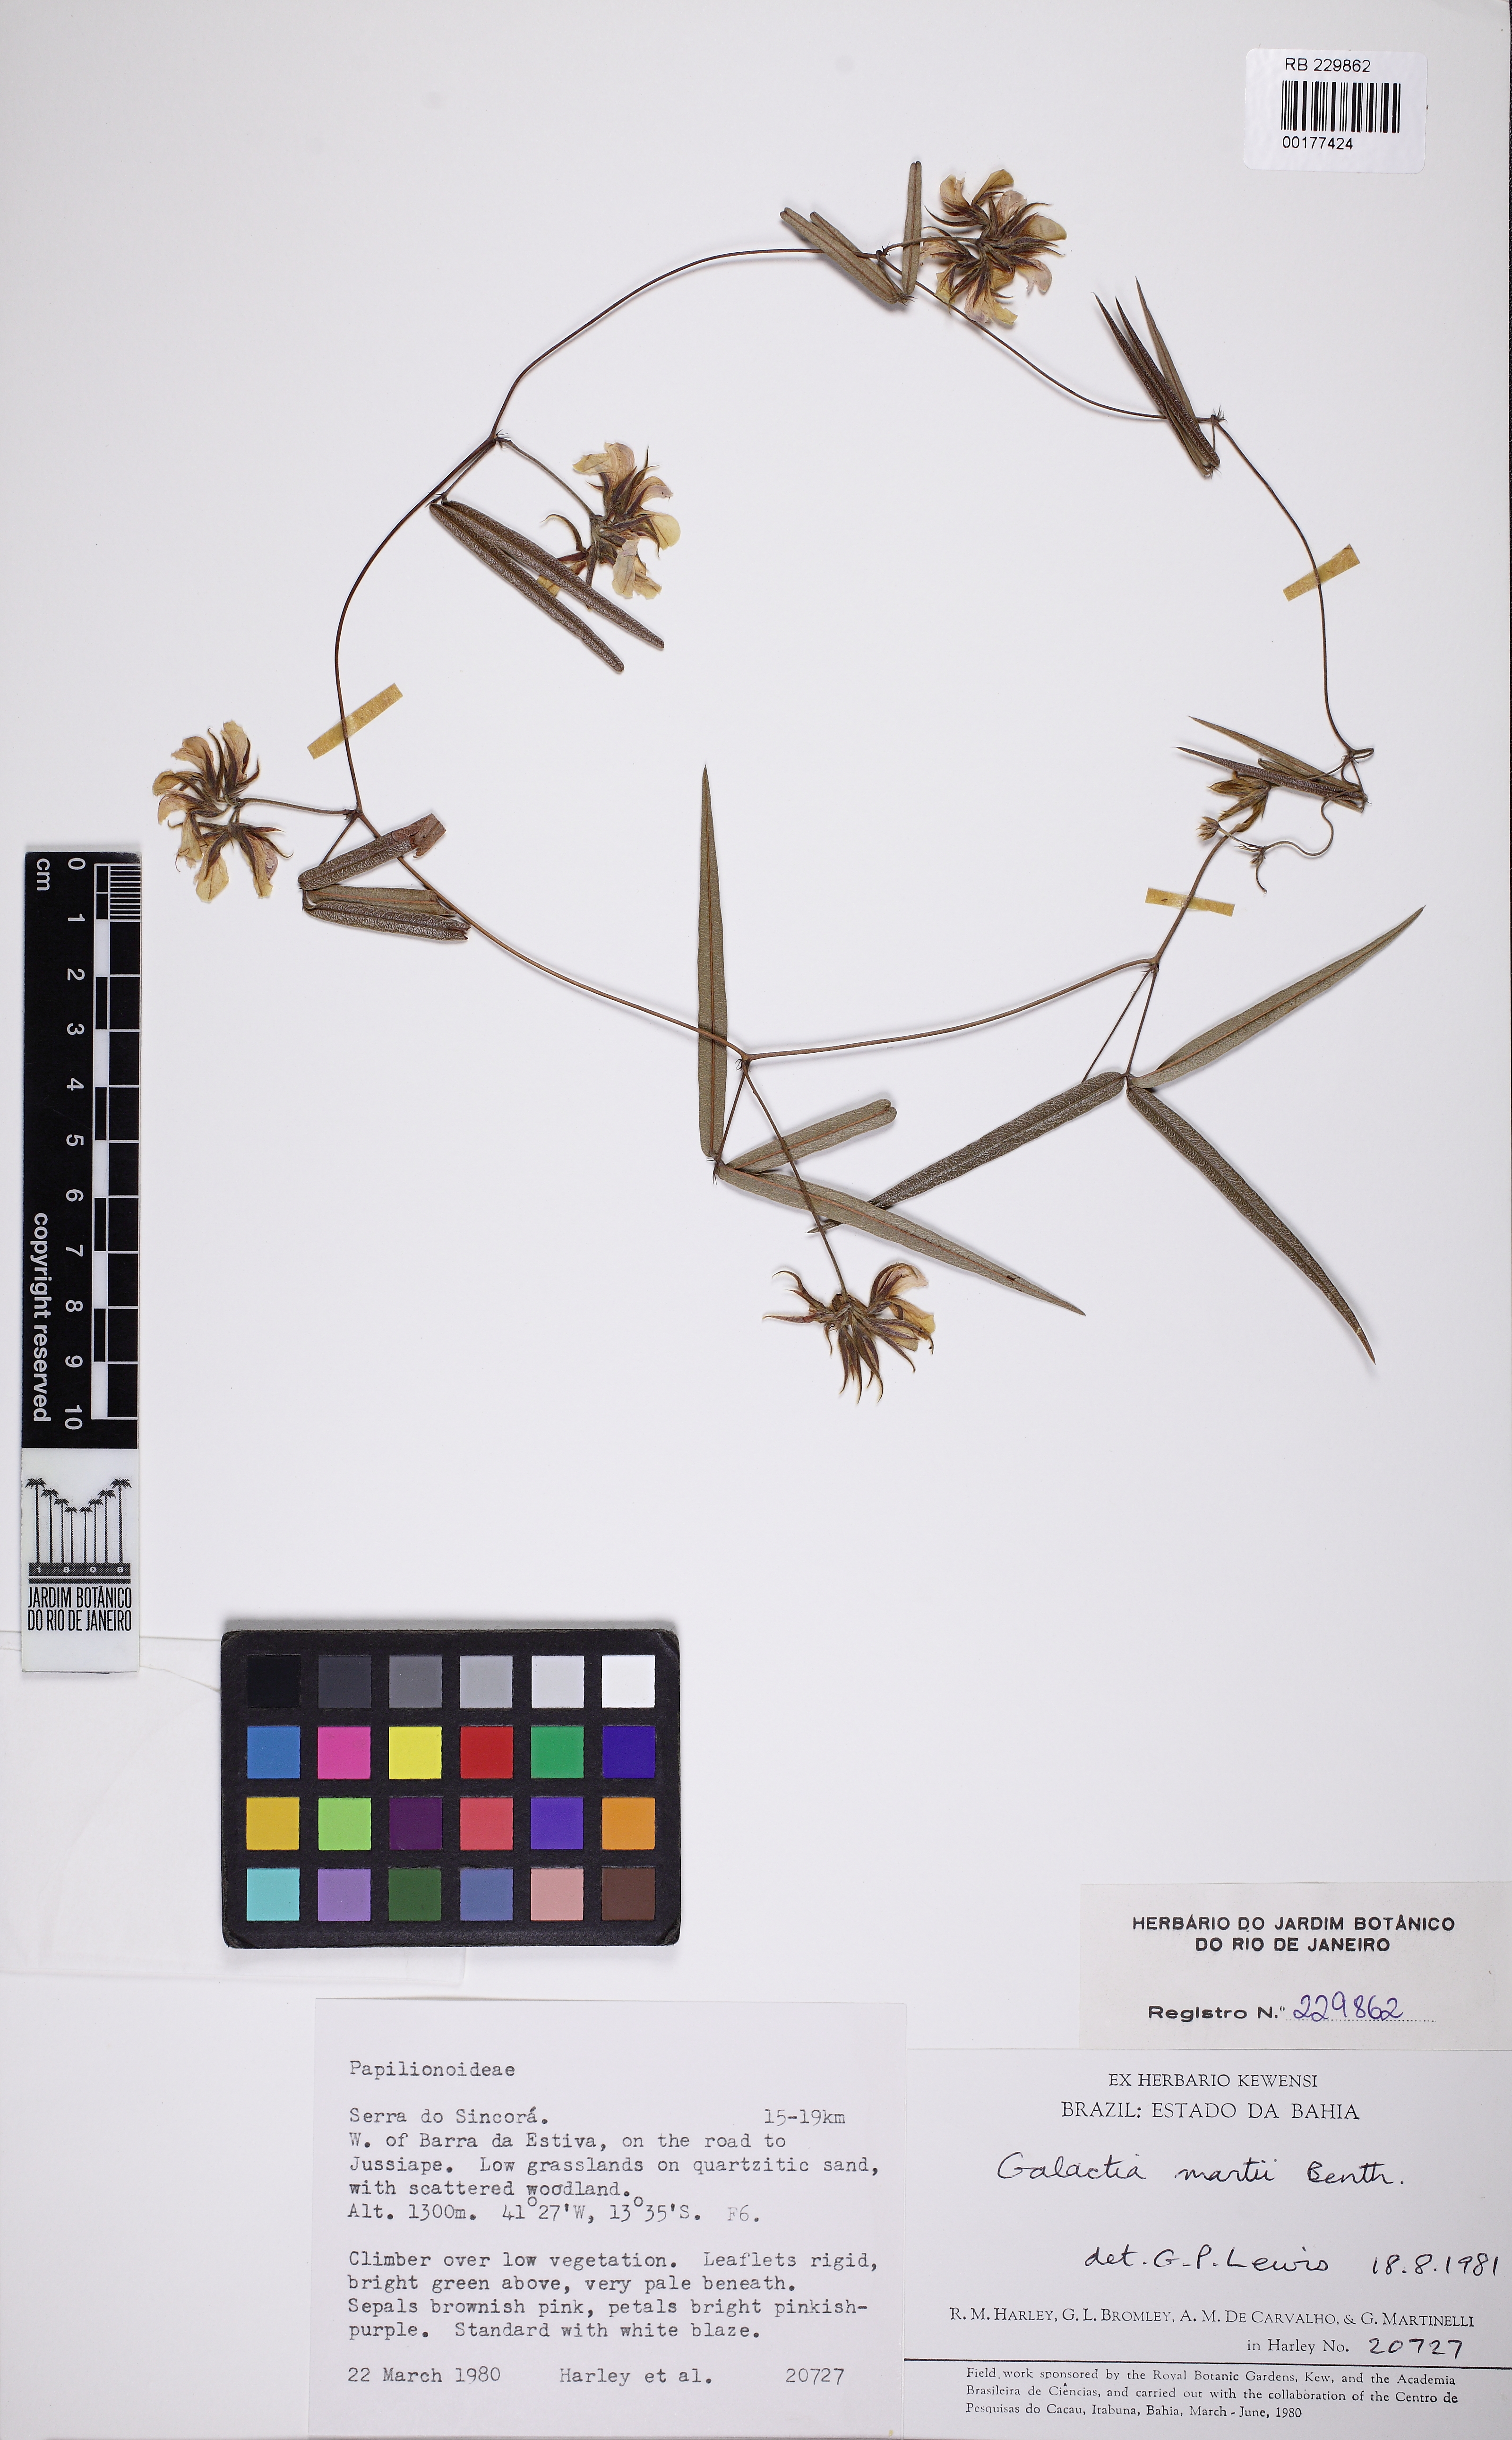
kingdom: Plantae
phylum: Tracheophyta
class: Magnoliopsida
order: Fabales
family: Fabaceae
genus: Betencourtia
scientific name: Betencourtia martii
